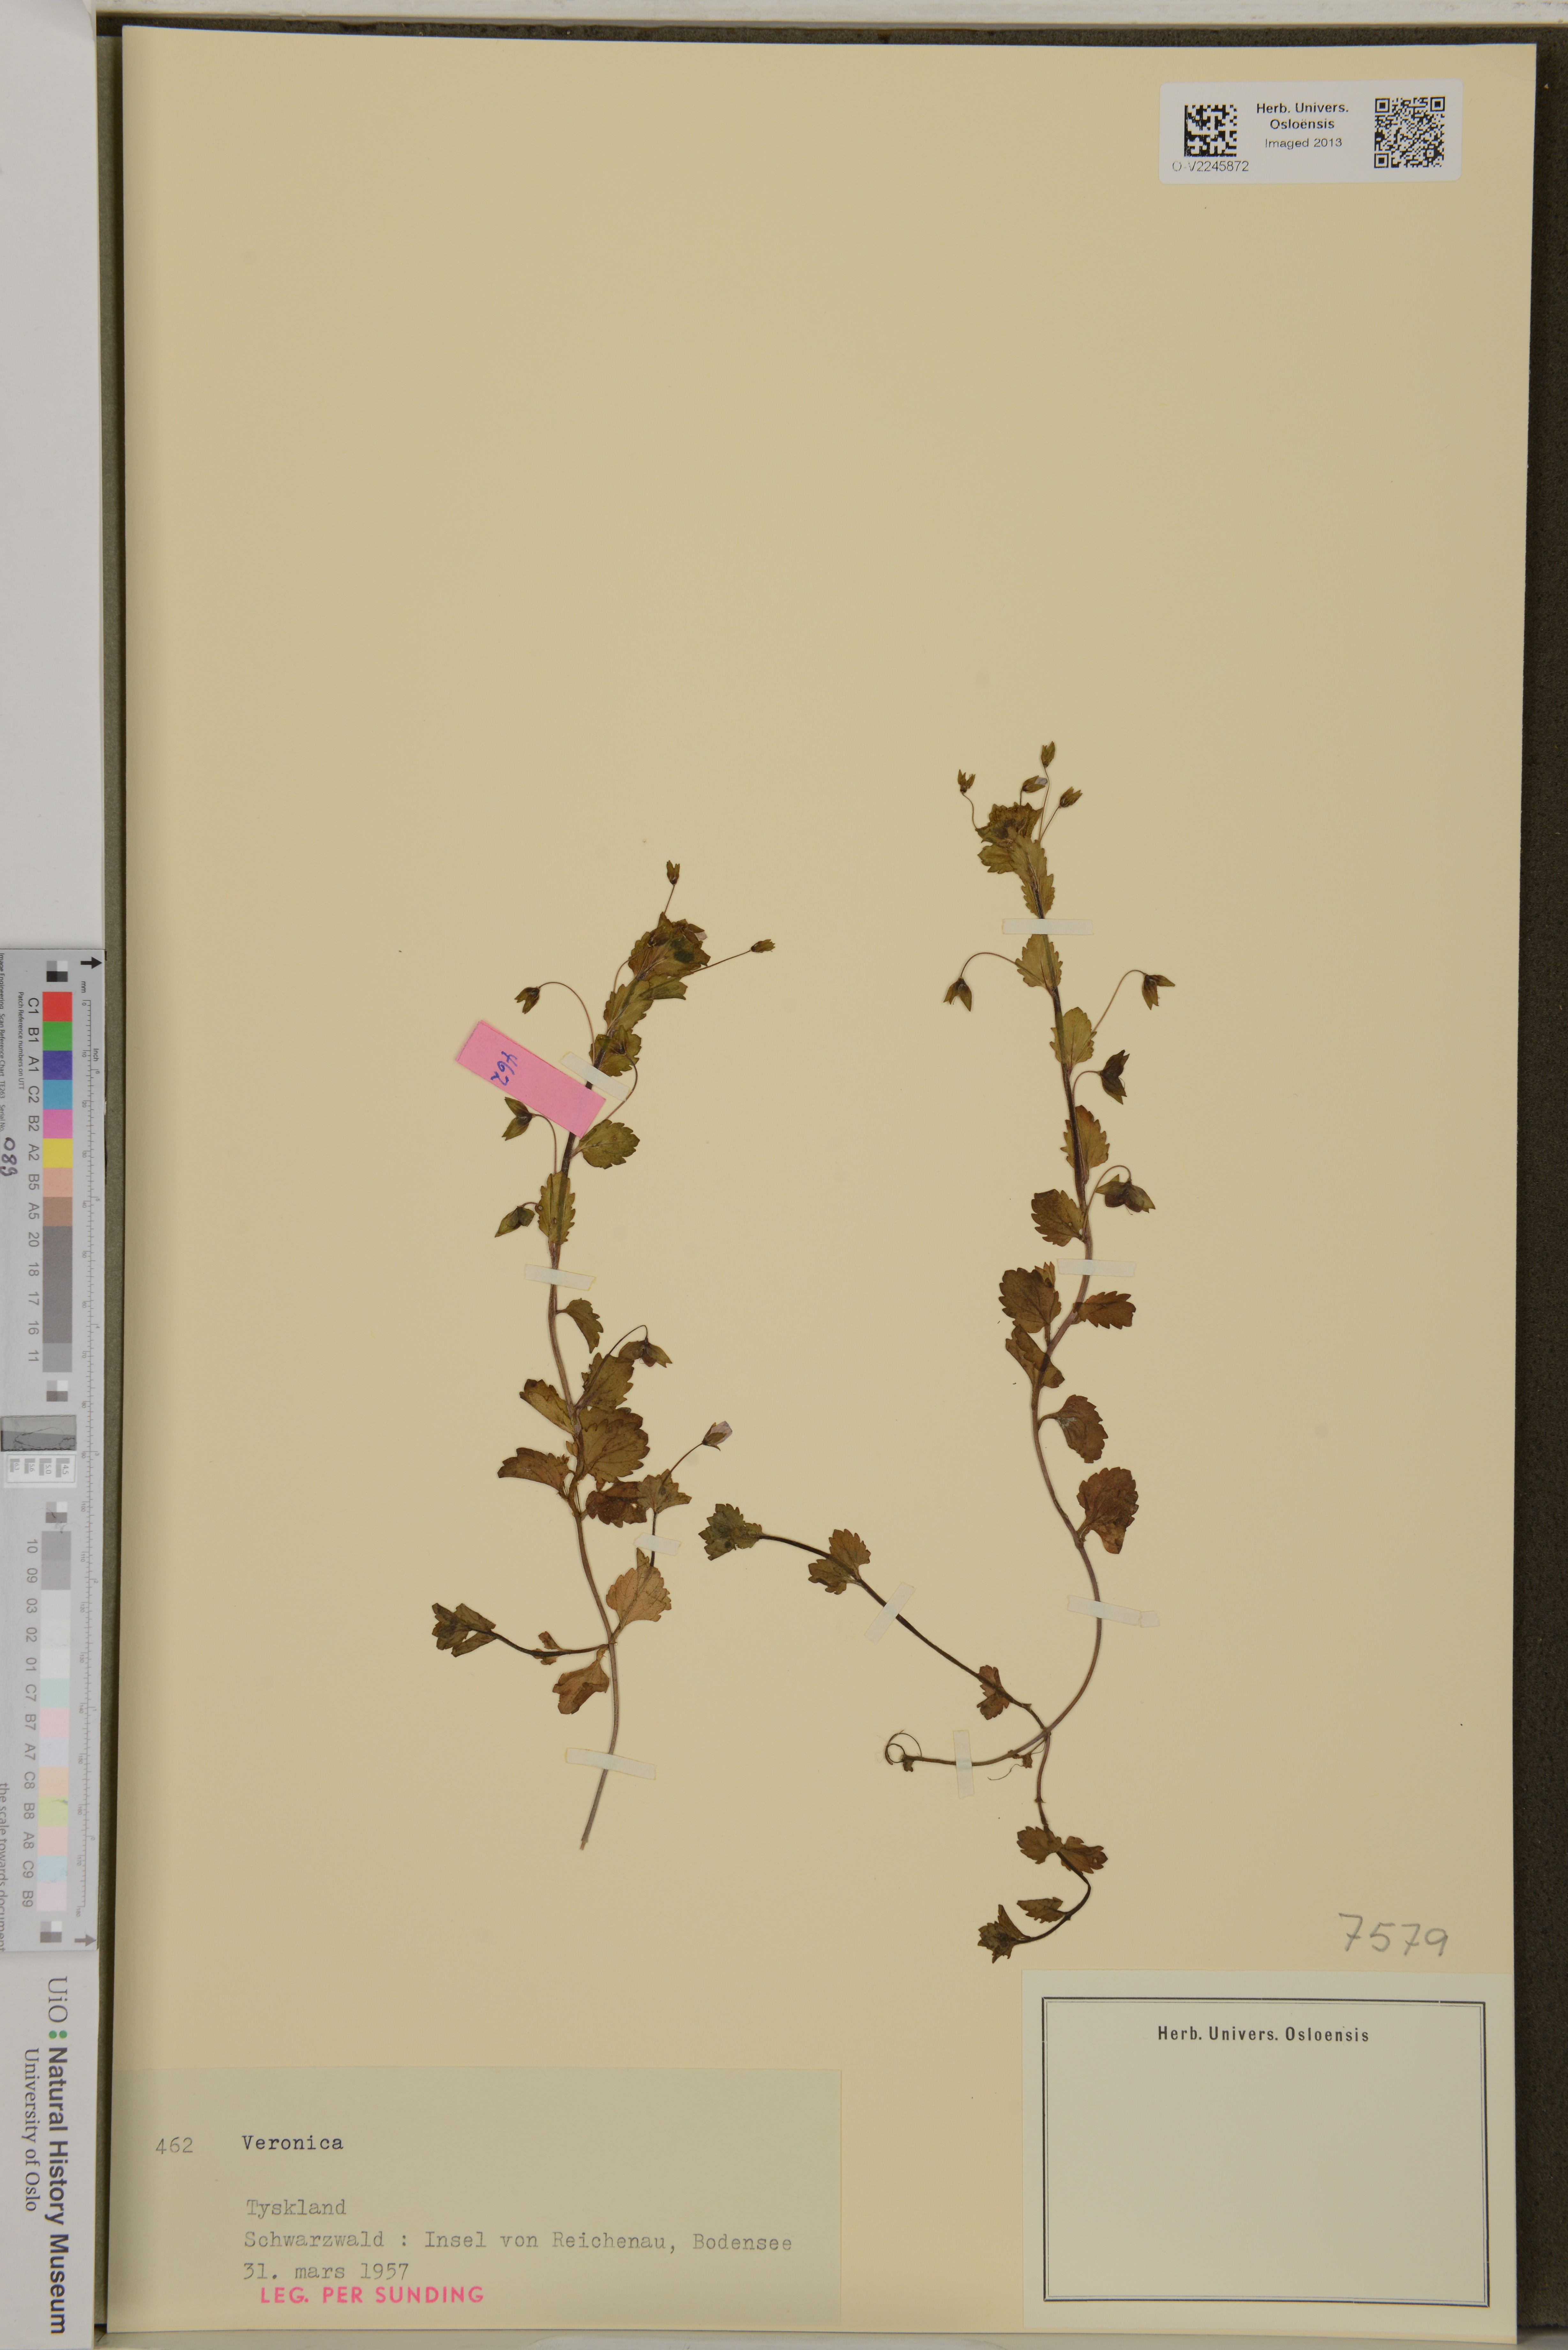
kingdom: Plantae
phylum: Tracheophyta
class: Magnoliopsida
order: Lamiales
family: Plantaginaceae
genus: Veronica
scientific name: Veronica
